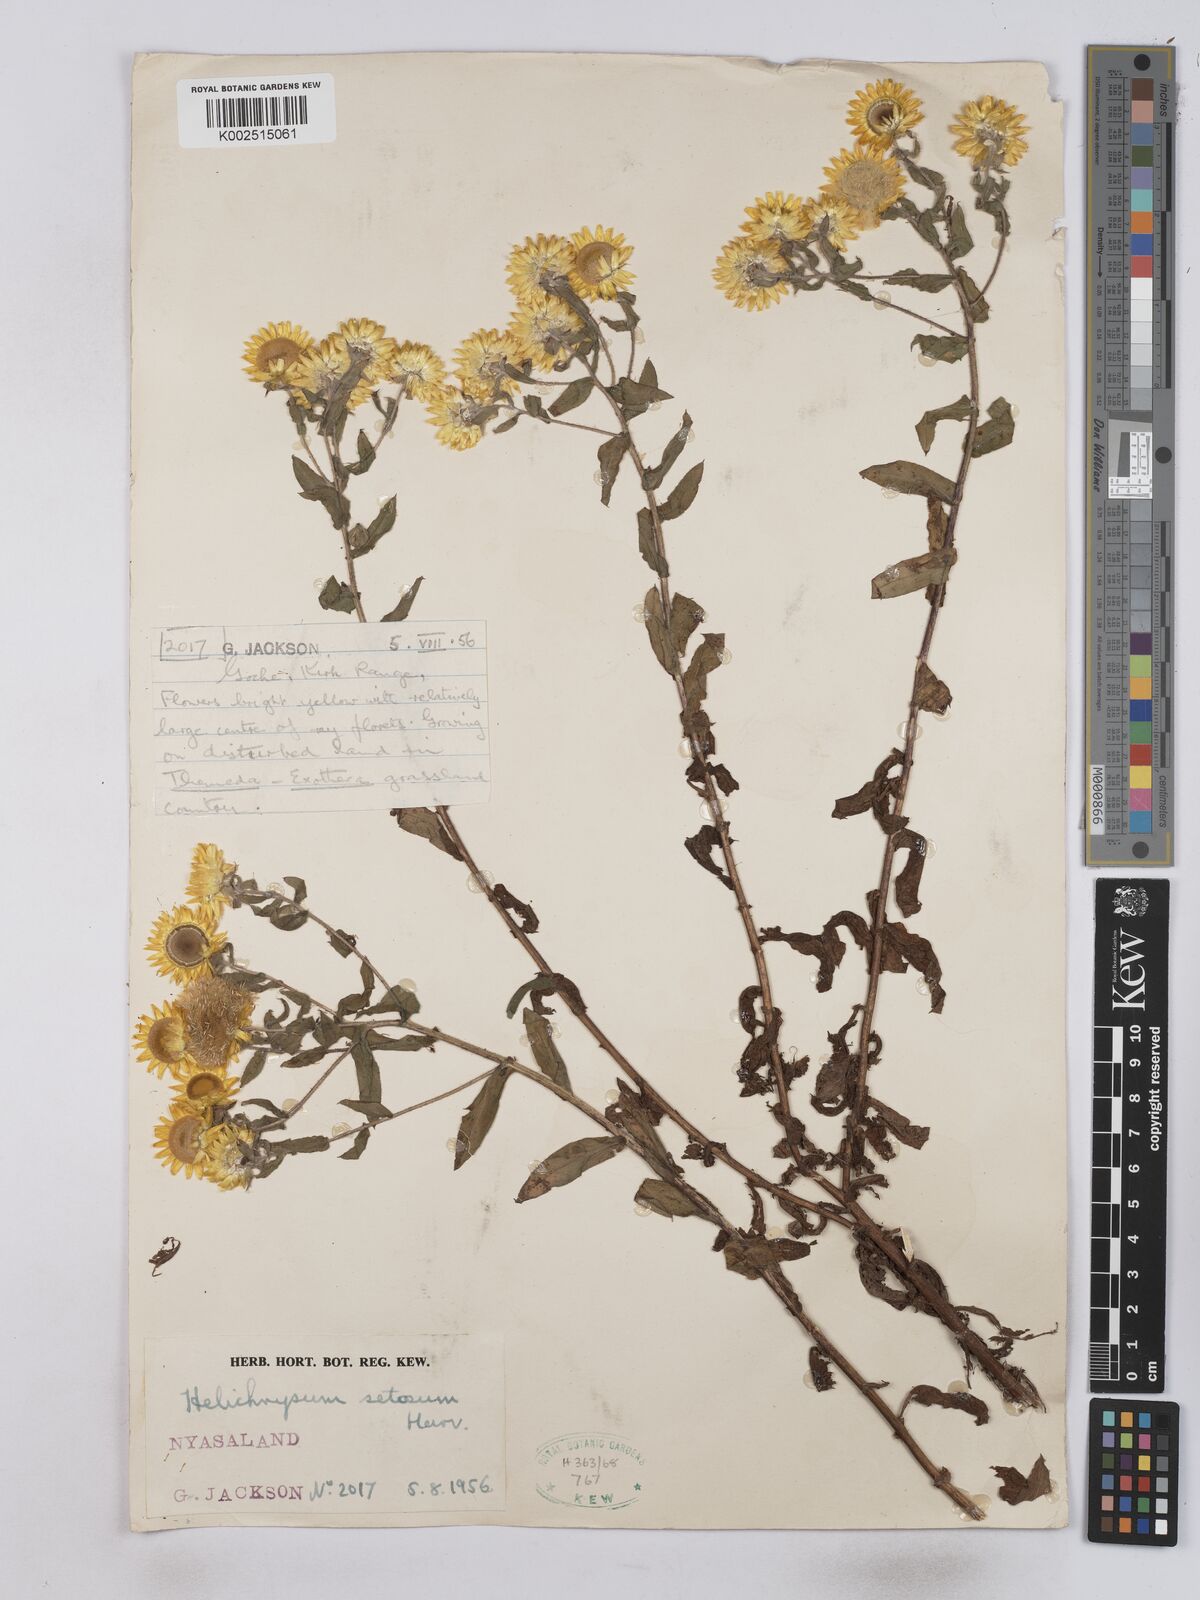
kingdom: Plantae
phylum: Tracheophyta
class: Magnoliopsida
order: Asterales
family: Asteraceae
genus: Helichrysum
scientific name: Helichrysum setosum
